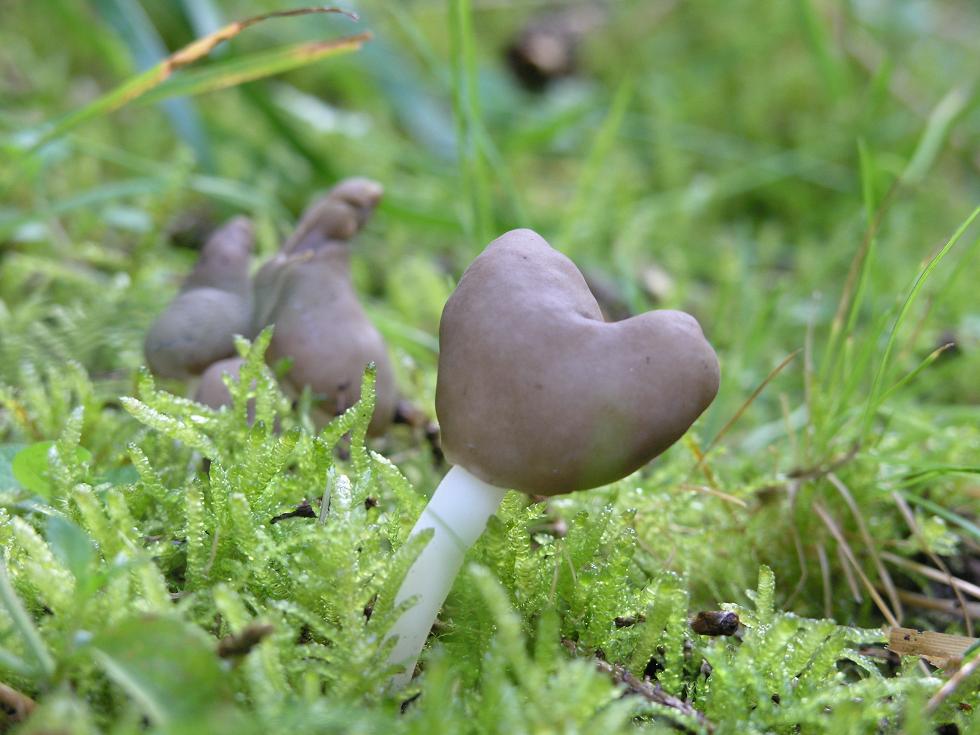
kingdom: Fungi
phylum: Ascomycota
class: Pezizomycetes
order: Pezizales
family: Helvellaceae
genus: Helvella
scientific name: Helvella elastica
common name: elastik-foldhat
